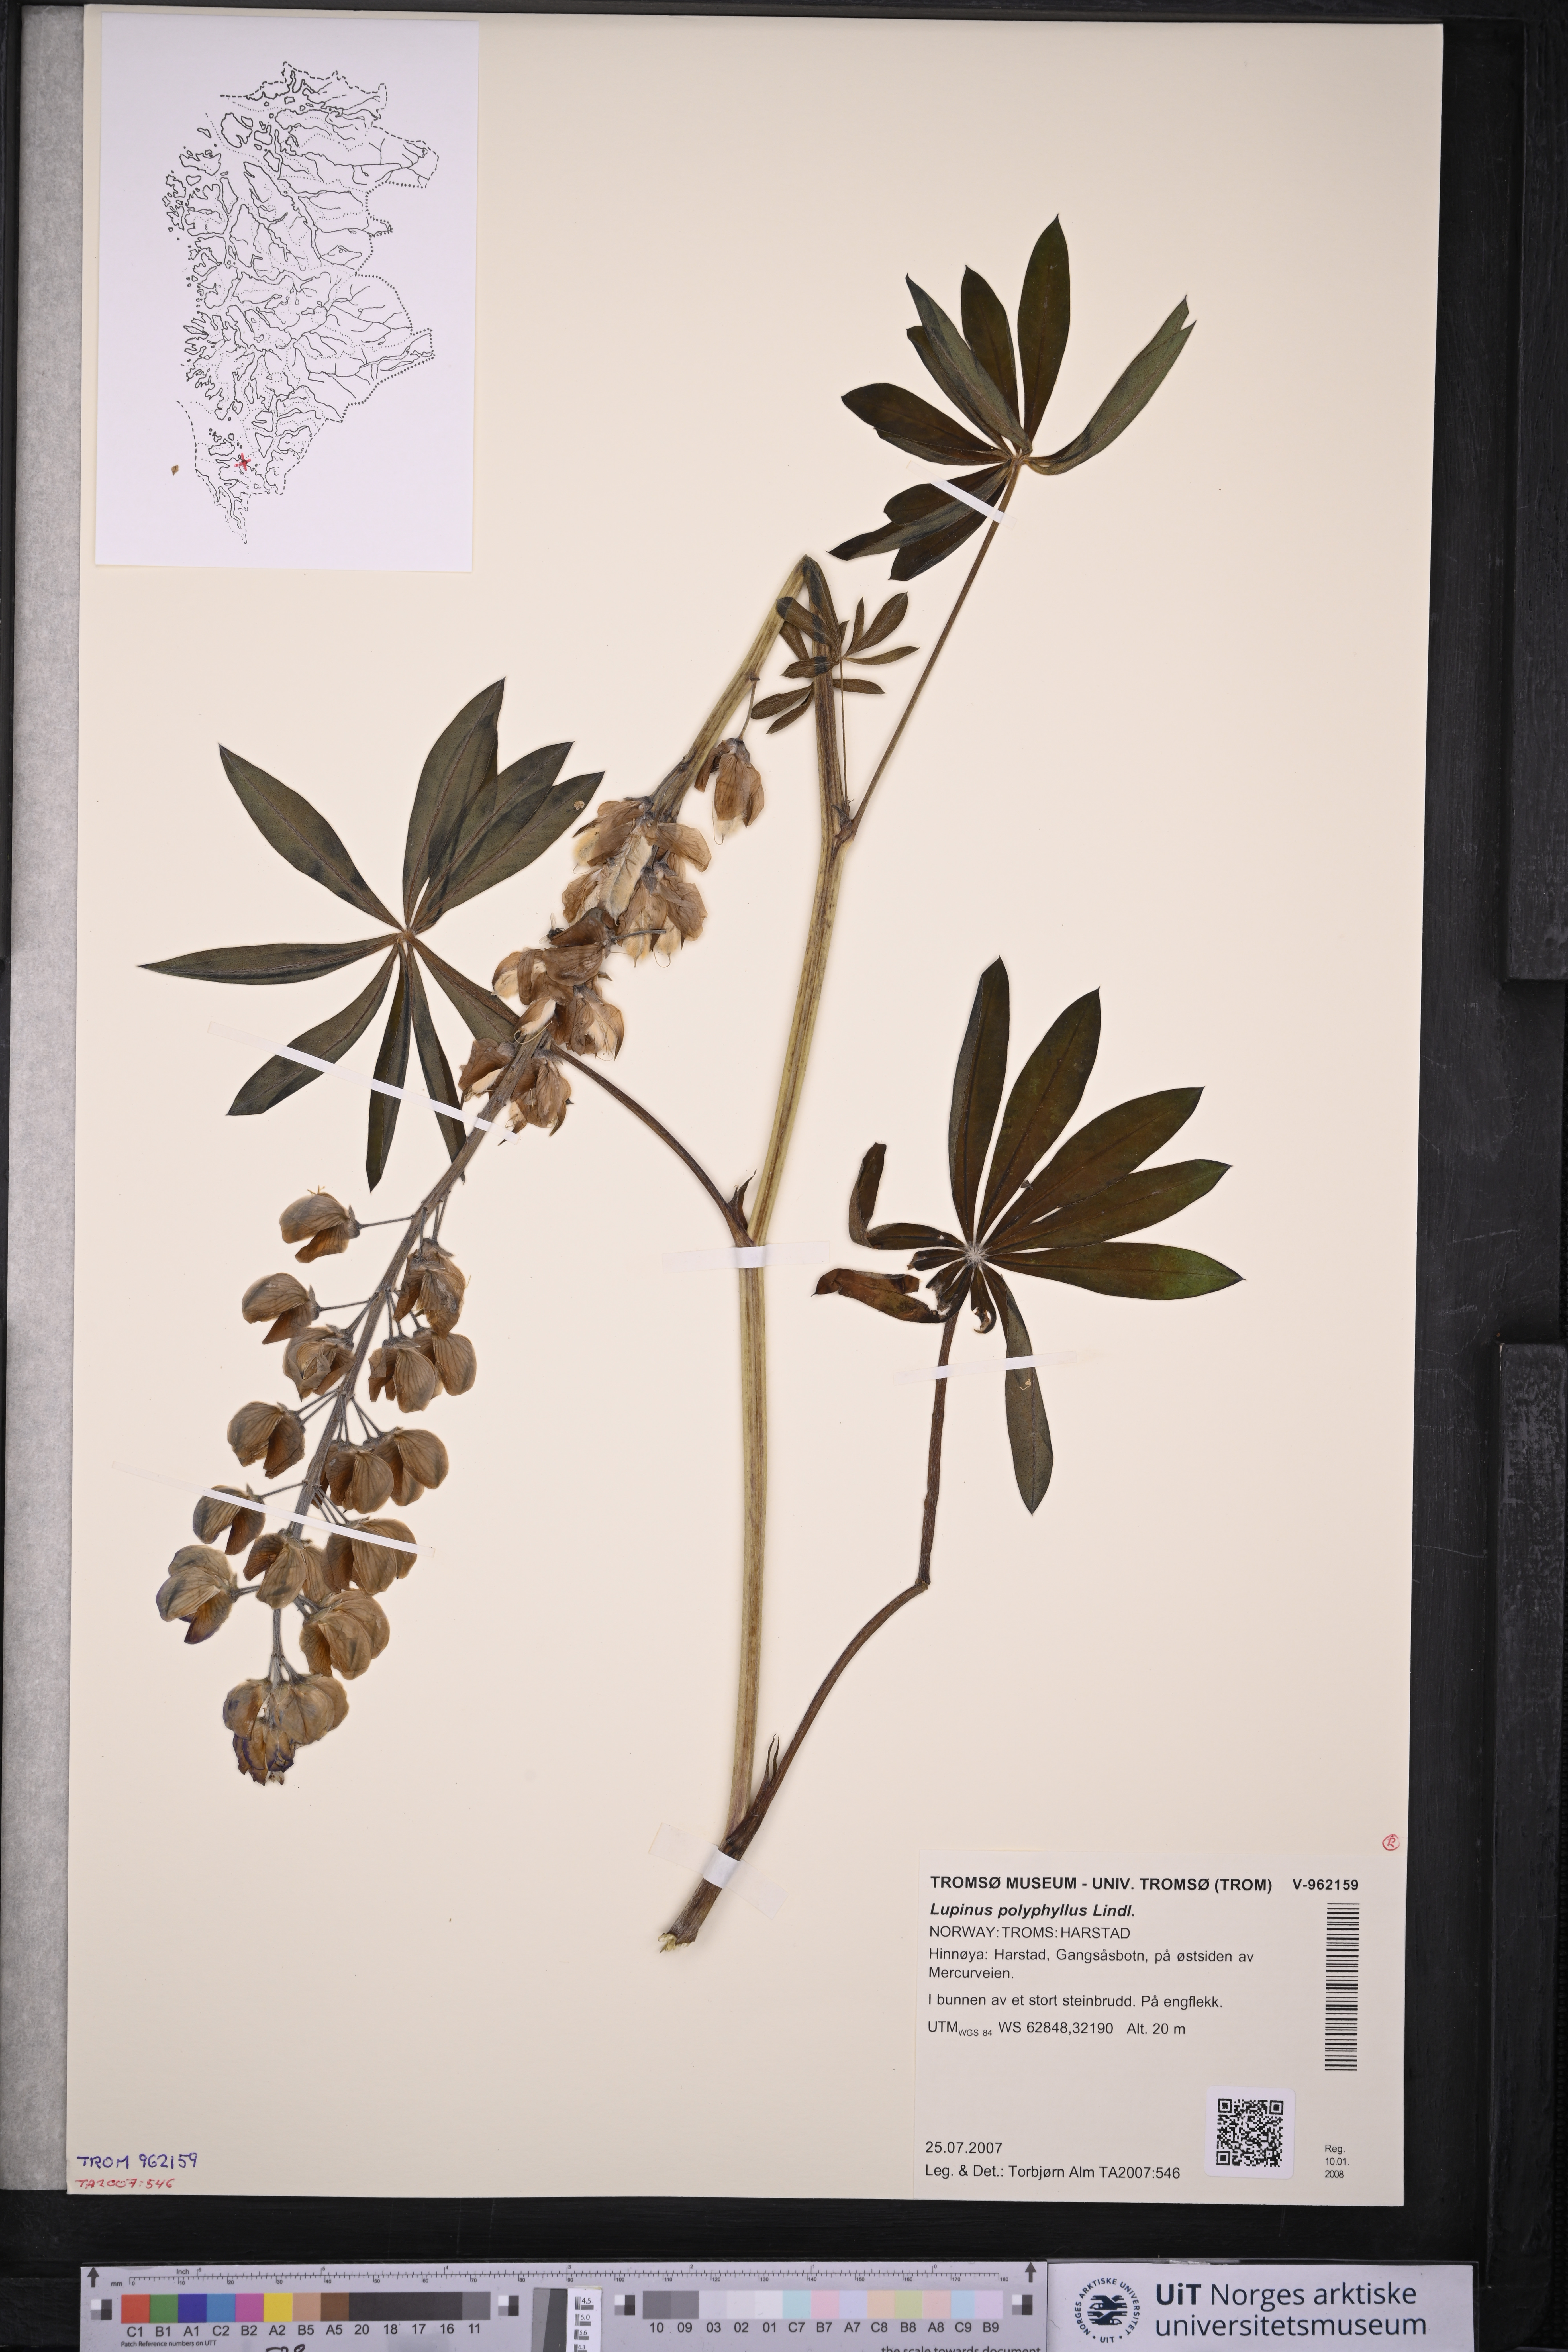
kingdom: Plantae
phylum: Tracheophyta
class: Magnoliopsida
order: Fabales
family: Fabaceae
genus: Lupinus
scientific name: Lupinus polyphyllus
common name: Garden lupin
